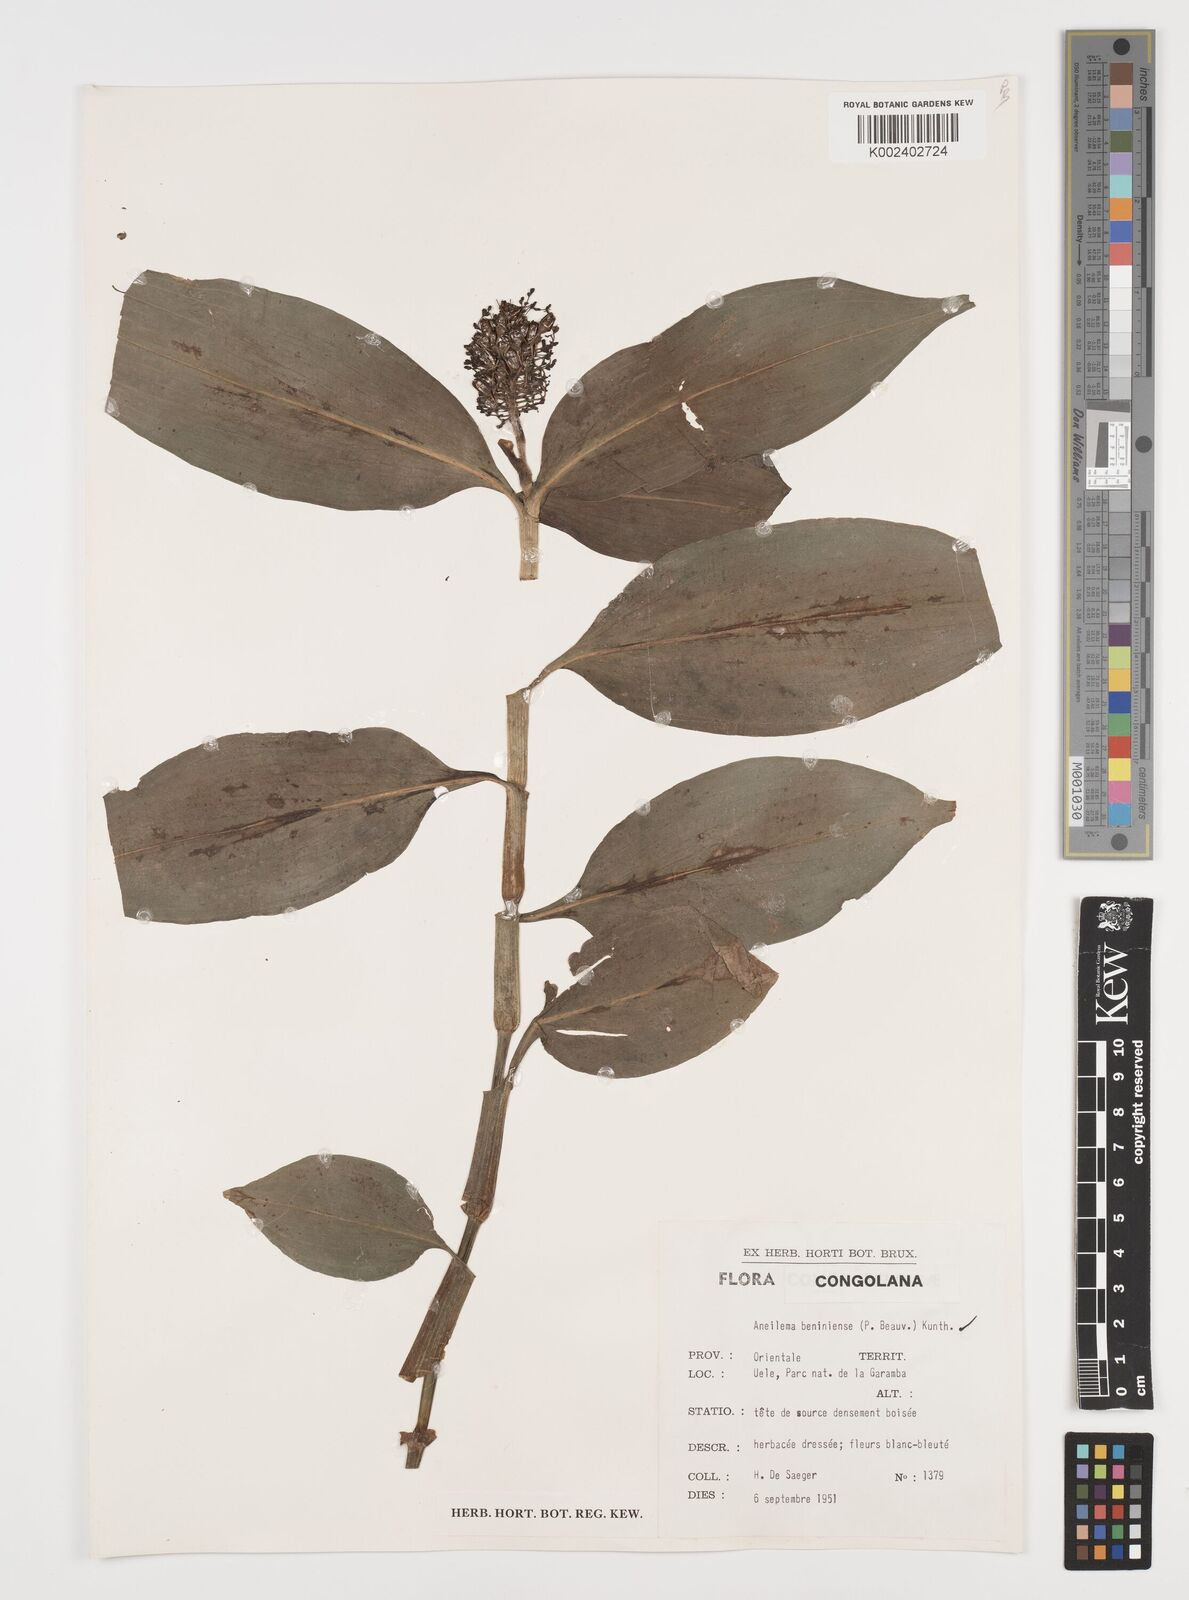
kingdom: Plantae
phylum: Tracheophyta
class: Liliopsida
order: Commelinales
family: Commelinaceae
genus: Aneilema
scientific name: Aneilema beniniense
